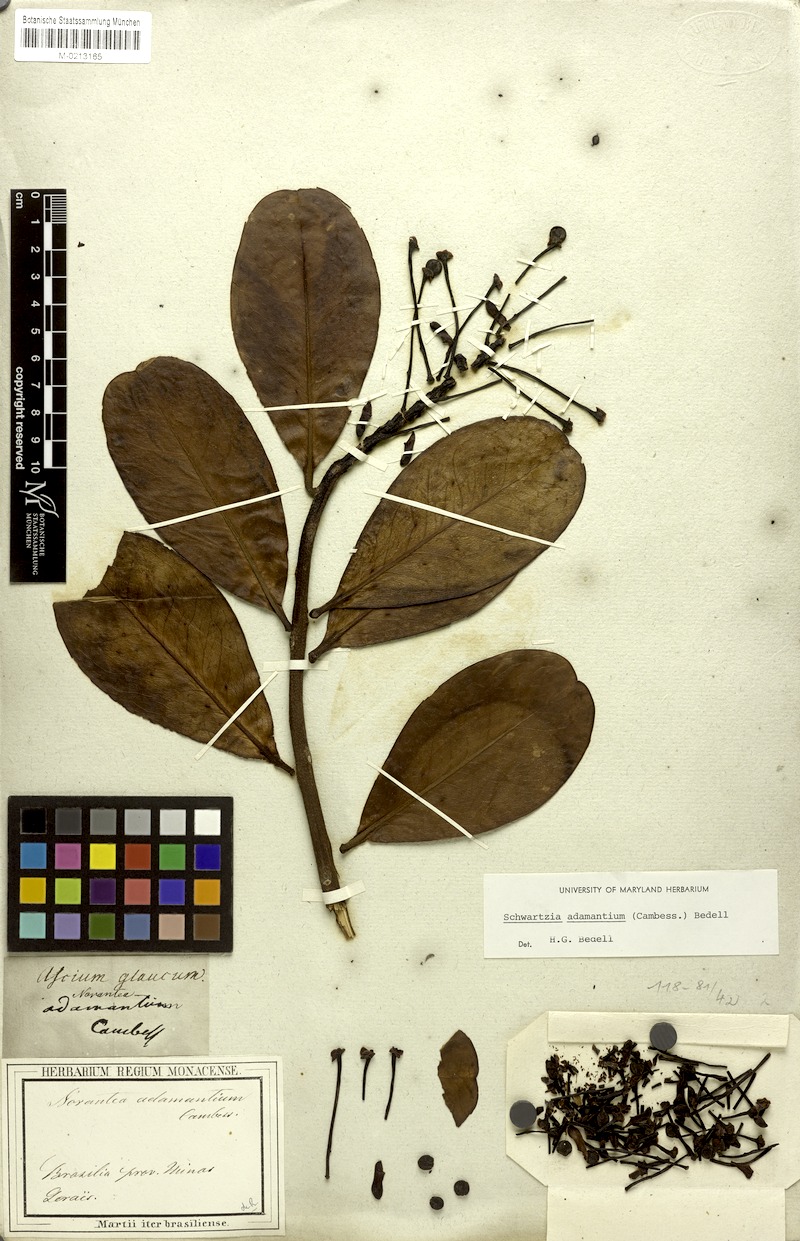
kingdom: Plantae
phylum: Tracheophyta
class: Magnoliopsida
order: Ericales
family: Marcgraviaceae
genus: Schwartzia
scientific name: Schwartzia adamantium
